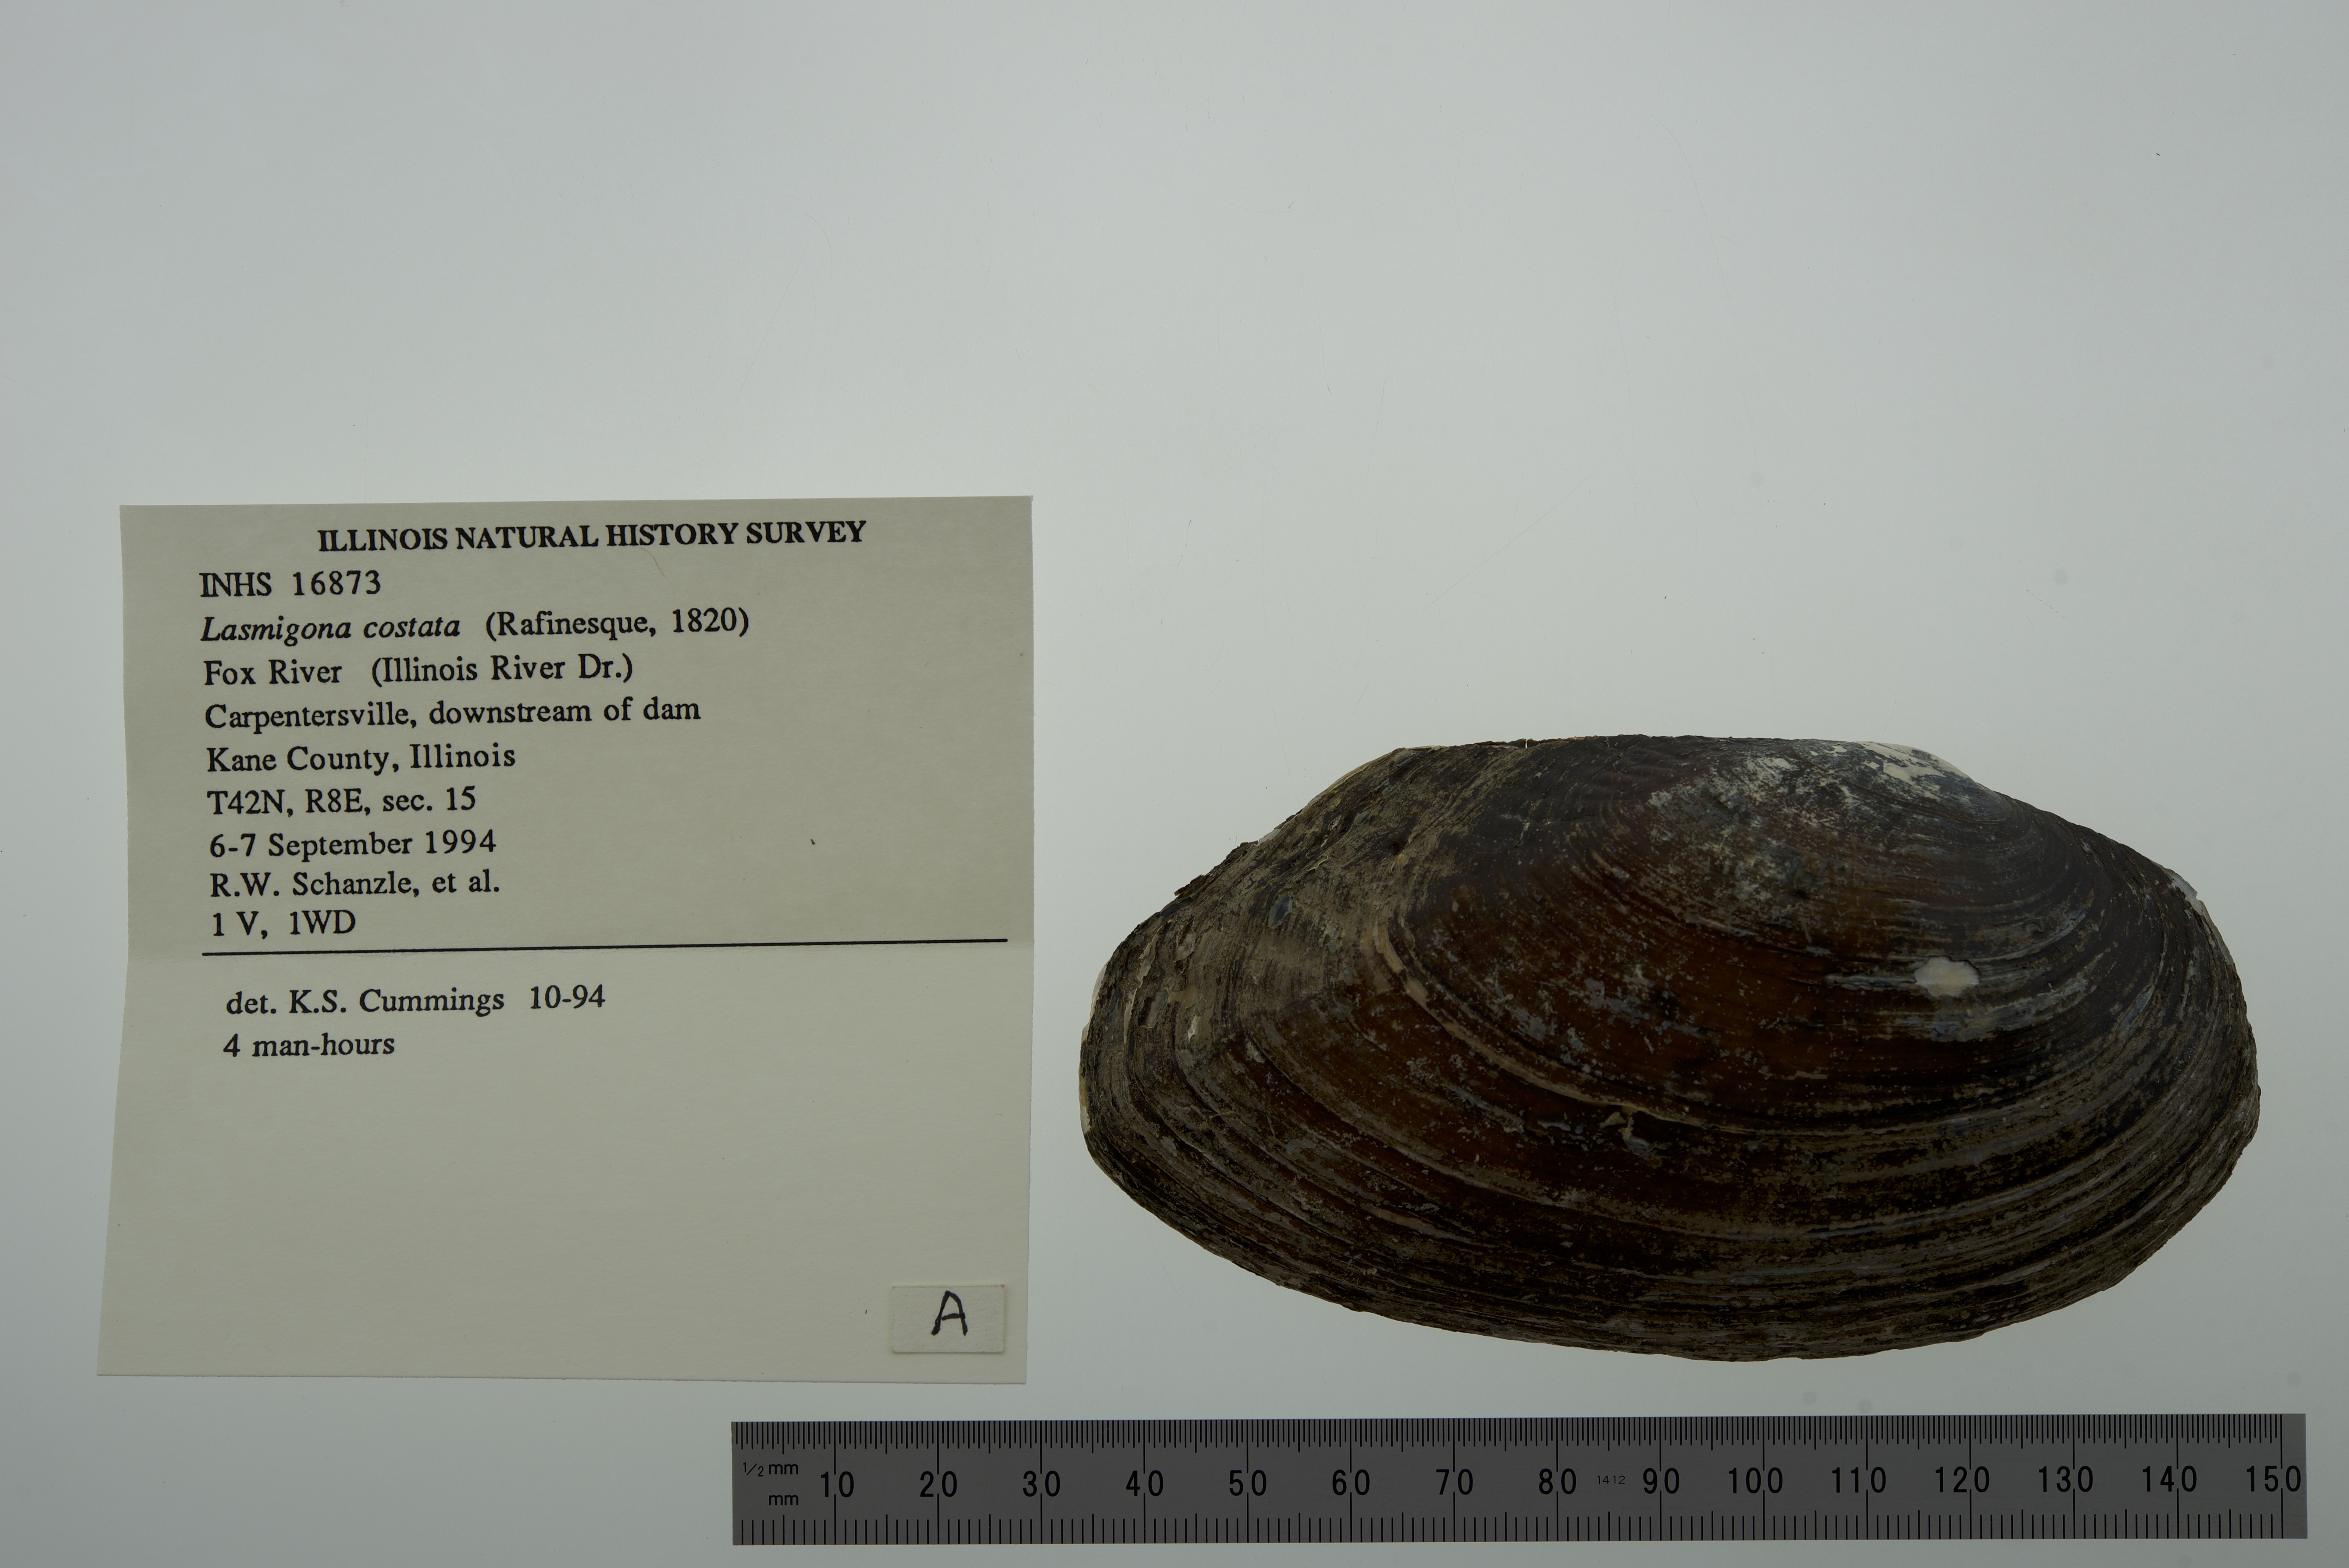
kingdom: Animalia
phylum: Mollusca
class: Bivalvia
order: Unionida
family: Unionidae
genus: Lasmigona
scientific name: Lasmigona costata
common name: Flutedshell
